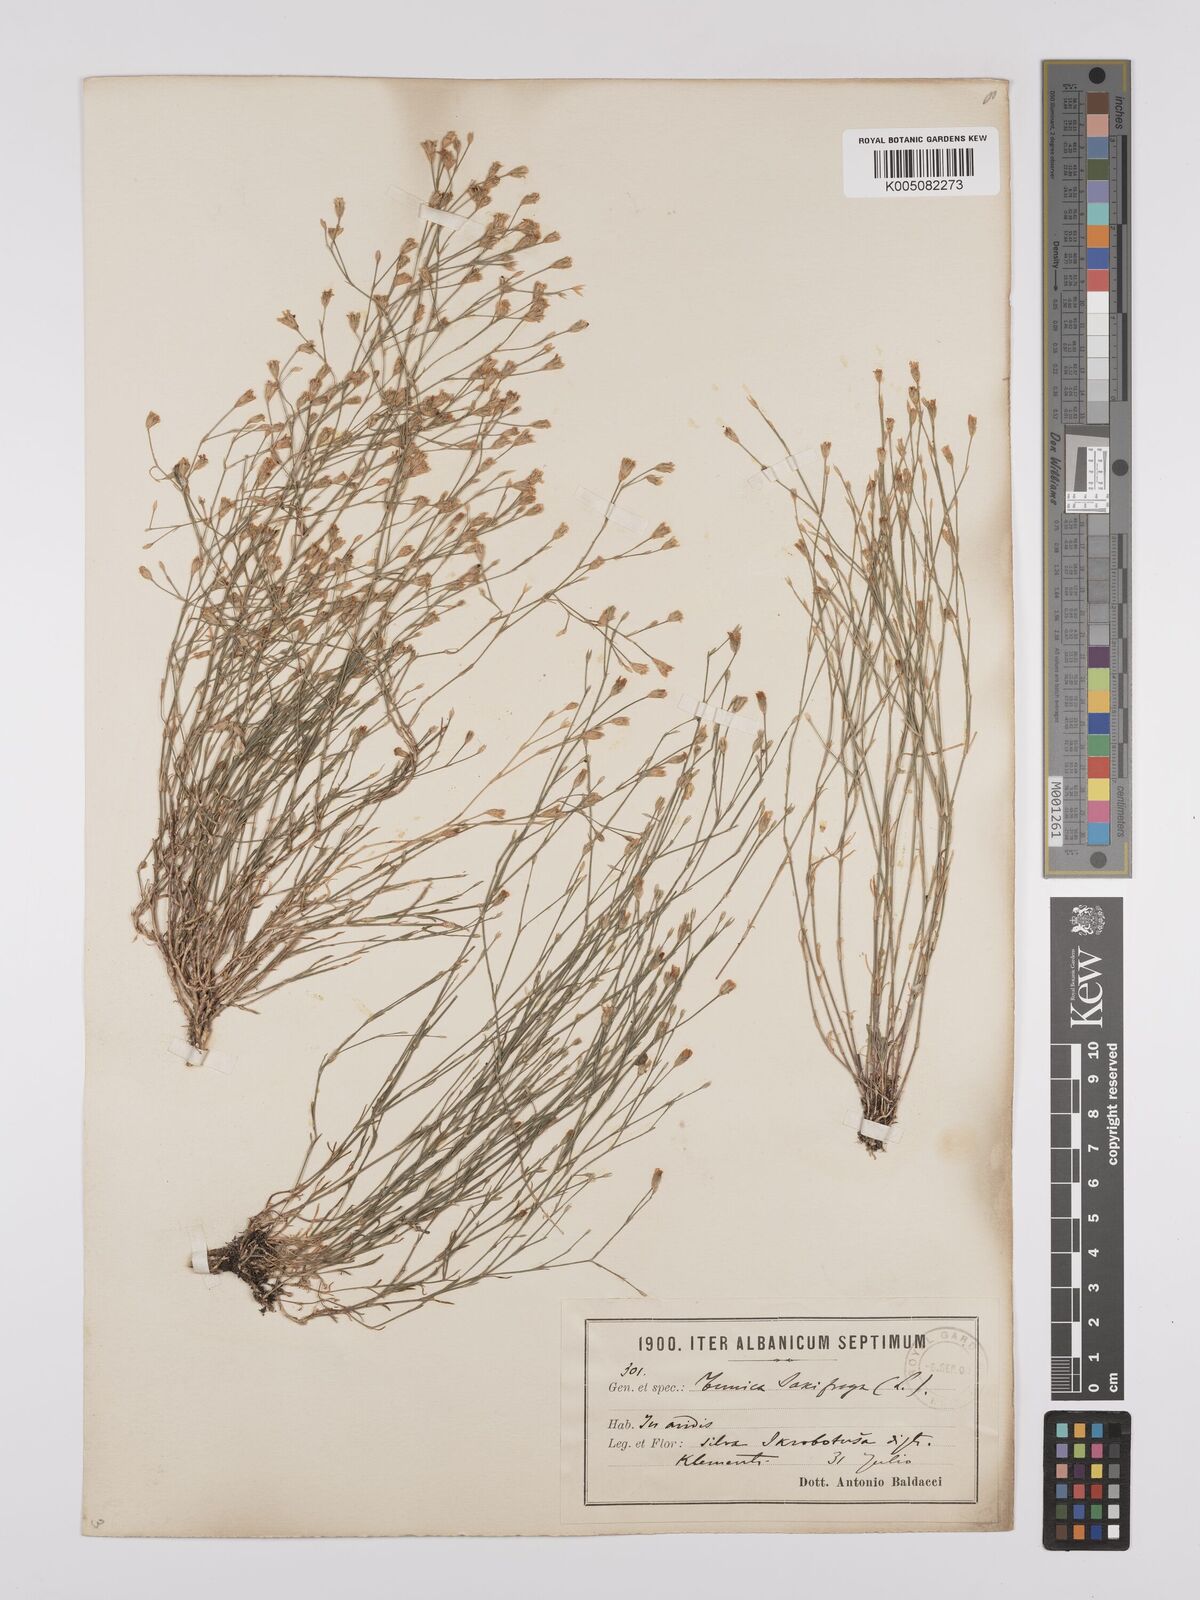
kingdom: Plantae
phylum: Tracheophyta
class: Magnoliopsida
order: Caryophyllales
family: Caryophyllaceae
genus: Petrorhagia
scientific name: Petrorhagia saxifraga
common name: Tunicflower
